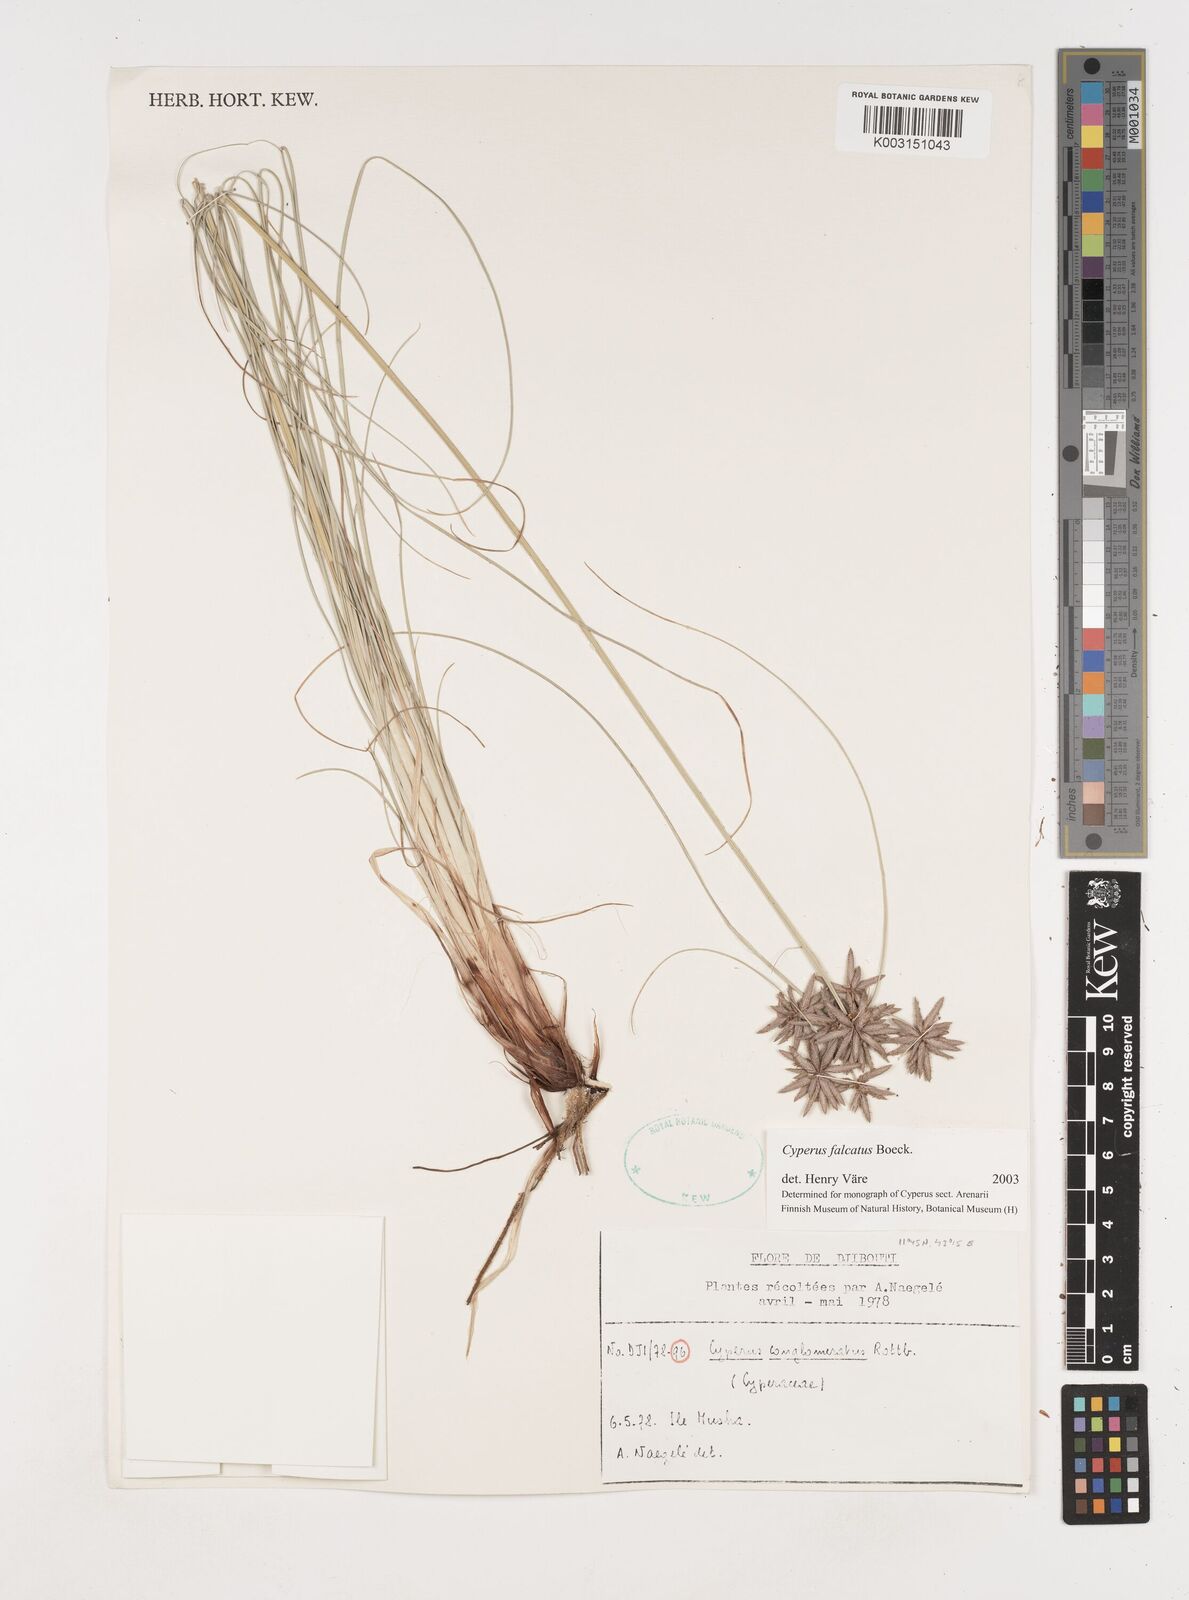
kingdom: Plantae
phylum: Tracheophyta
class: Liliopsida
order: Poales
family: Cyperaceae
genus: Cyperus
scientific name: Cyperus conglomeratus
